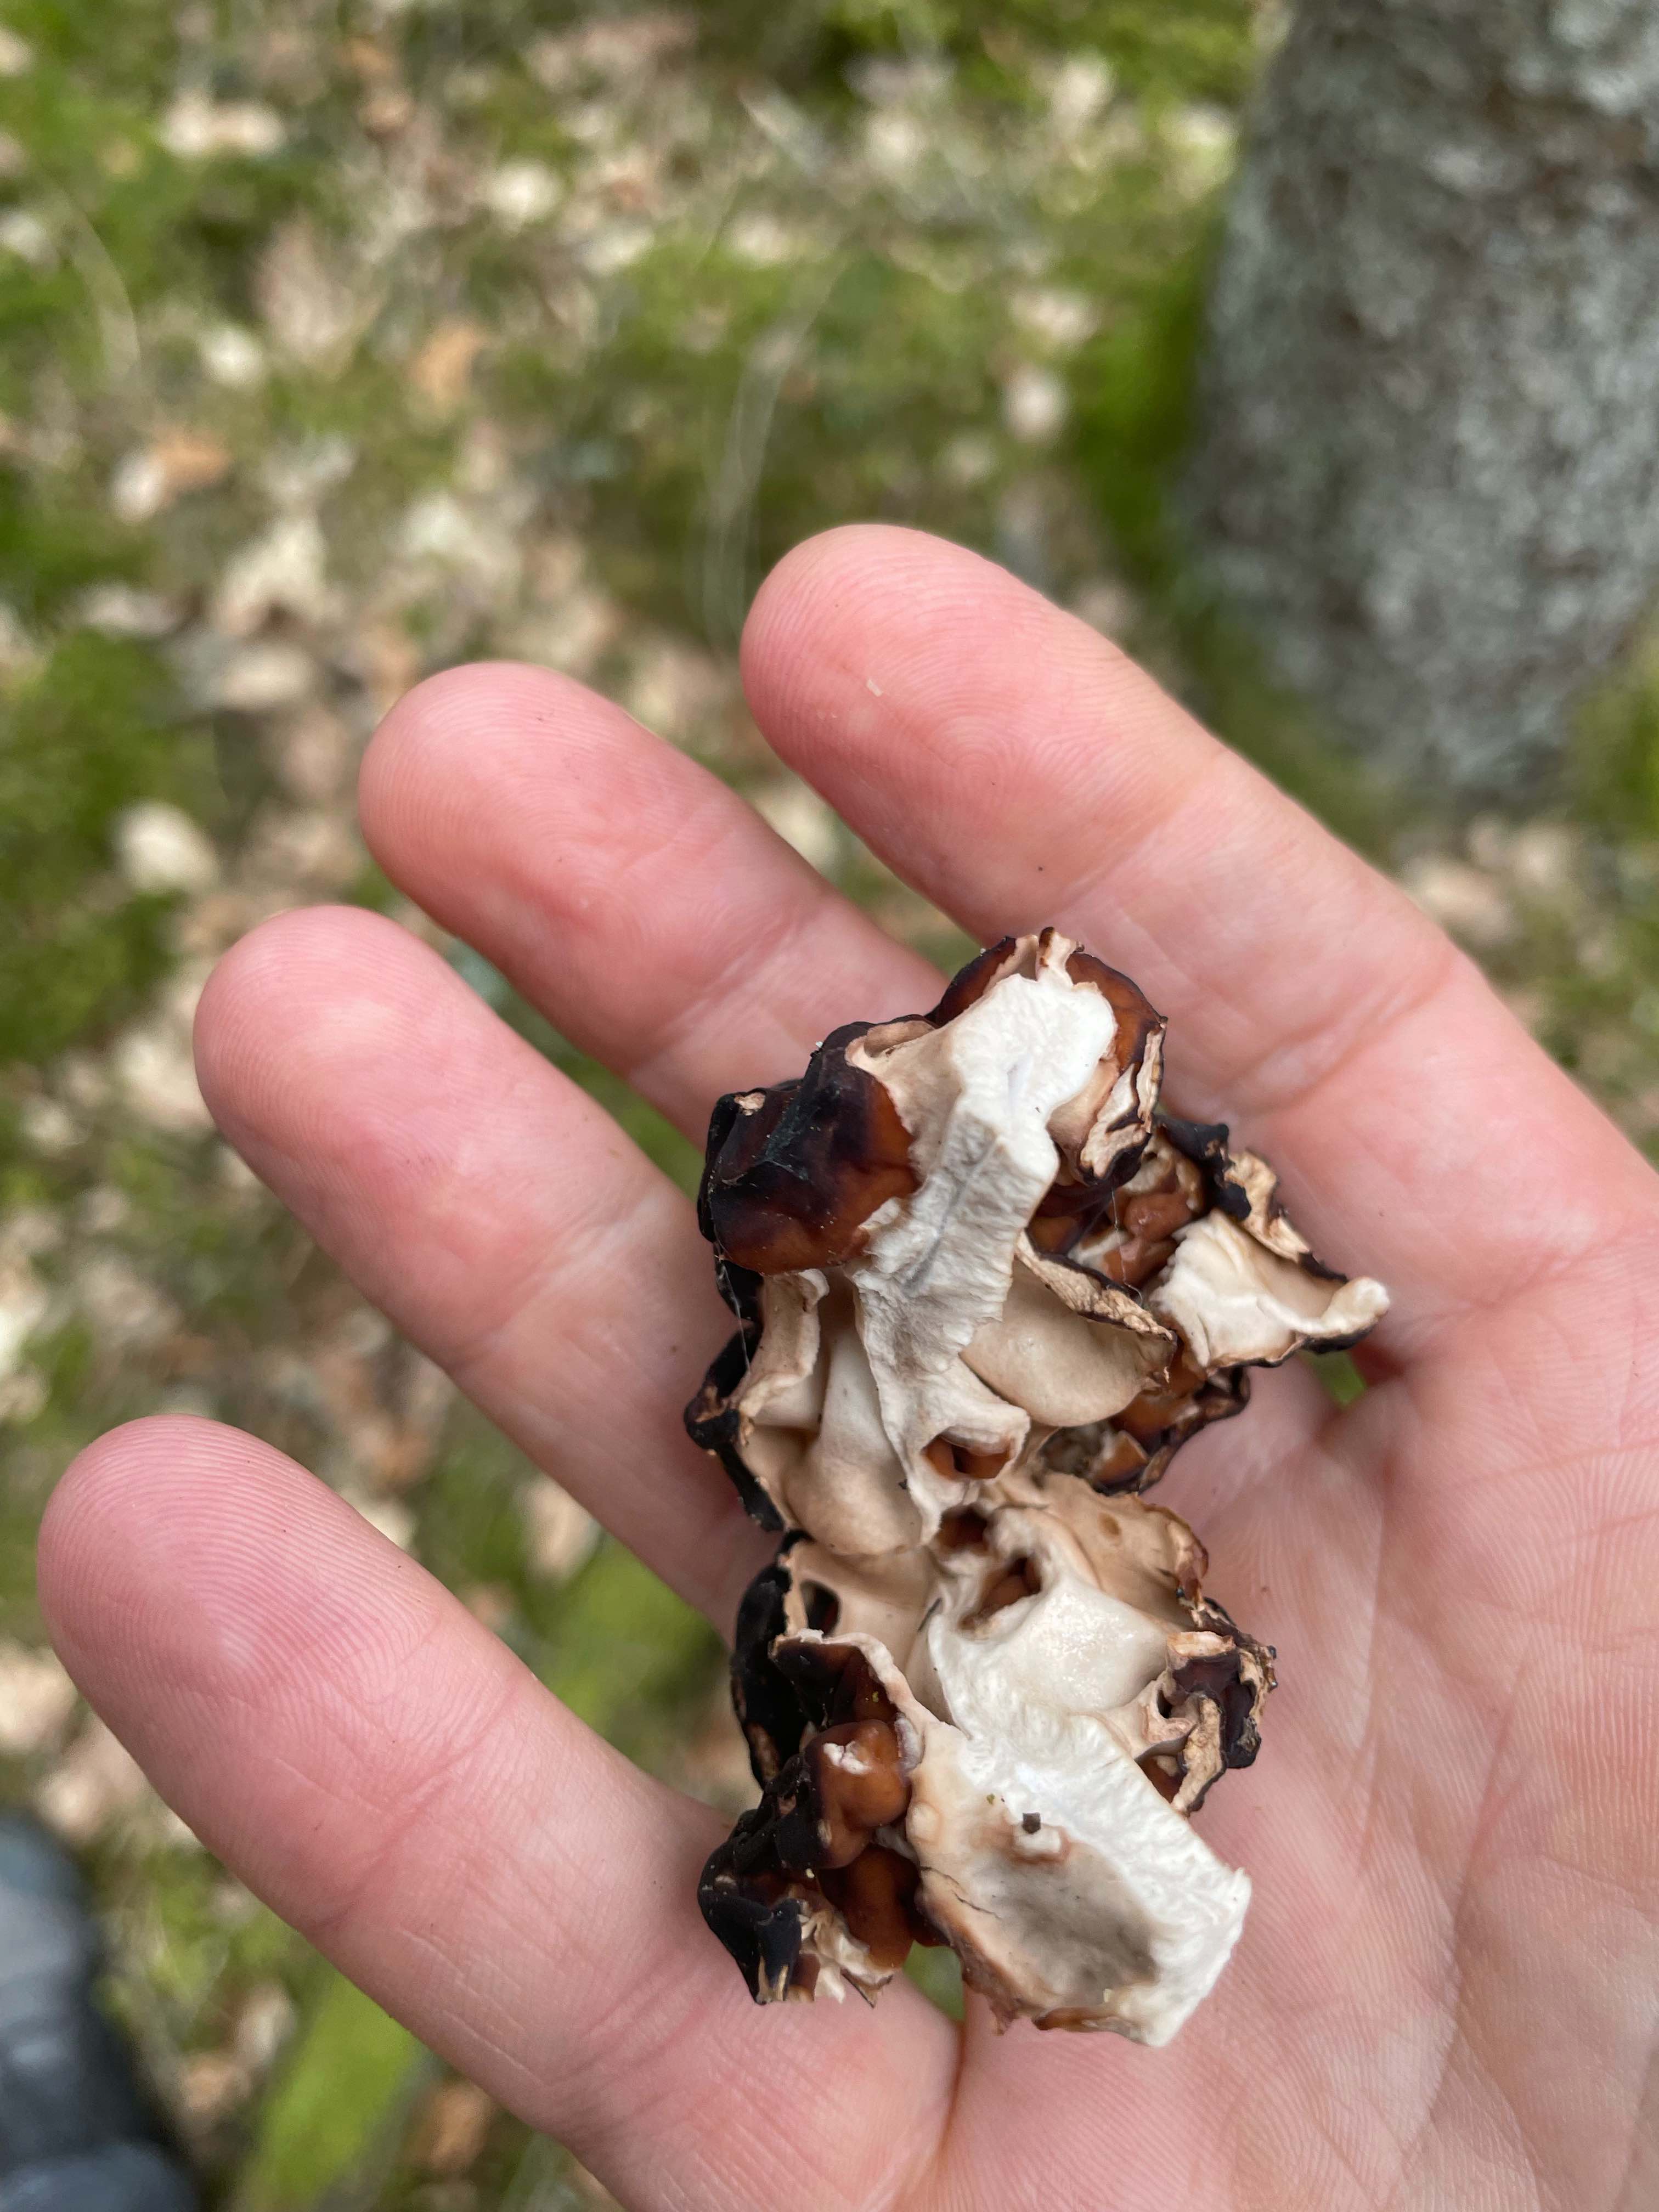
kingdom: Fungi
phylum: Ascomycota
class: Pezizomycetes
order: Pezizales
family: Discinaceae
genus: Gyromitra
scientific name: Gyromitra esculenta
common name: ægte stenmorkel
